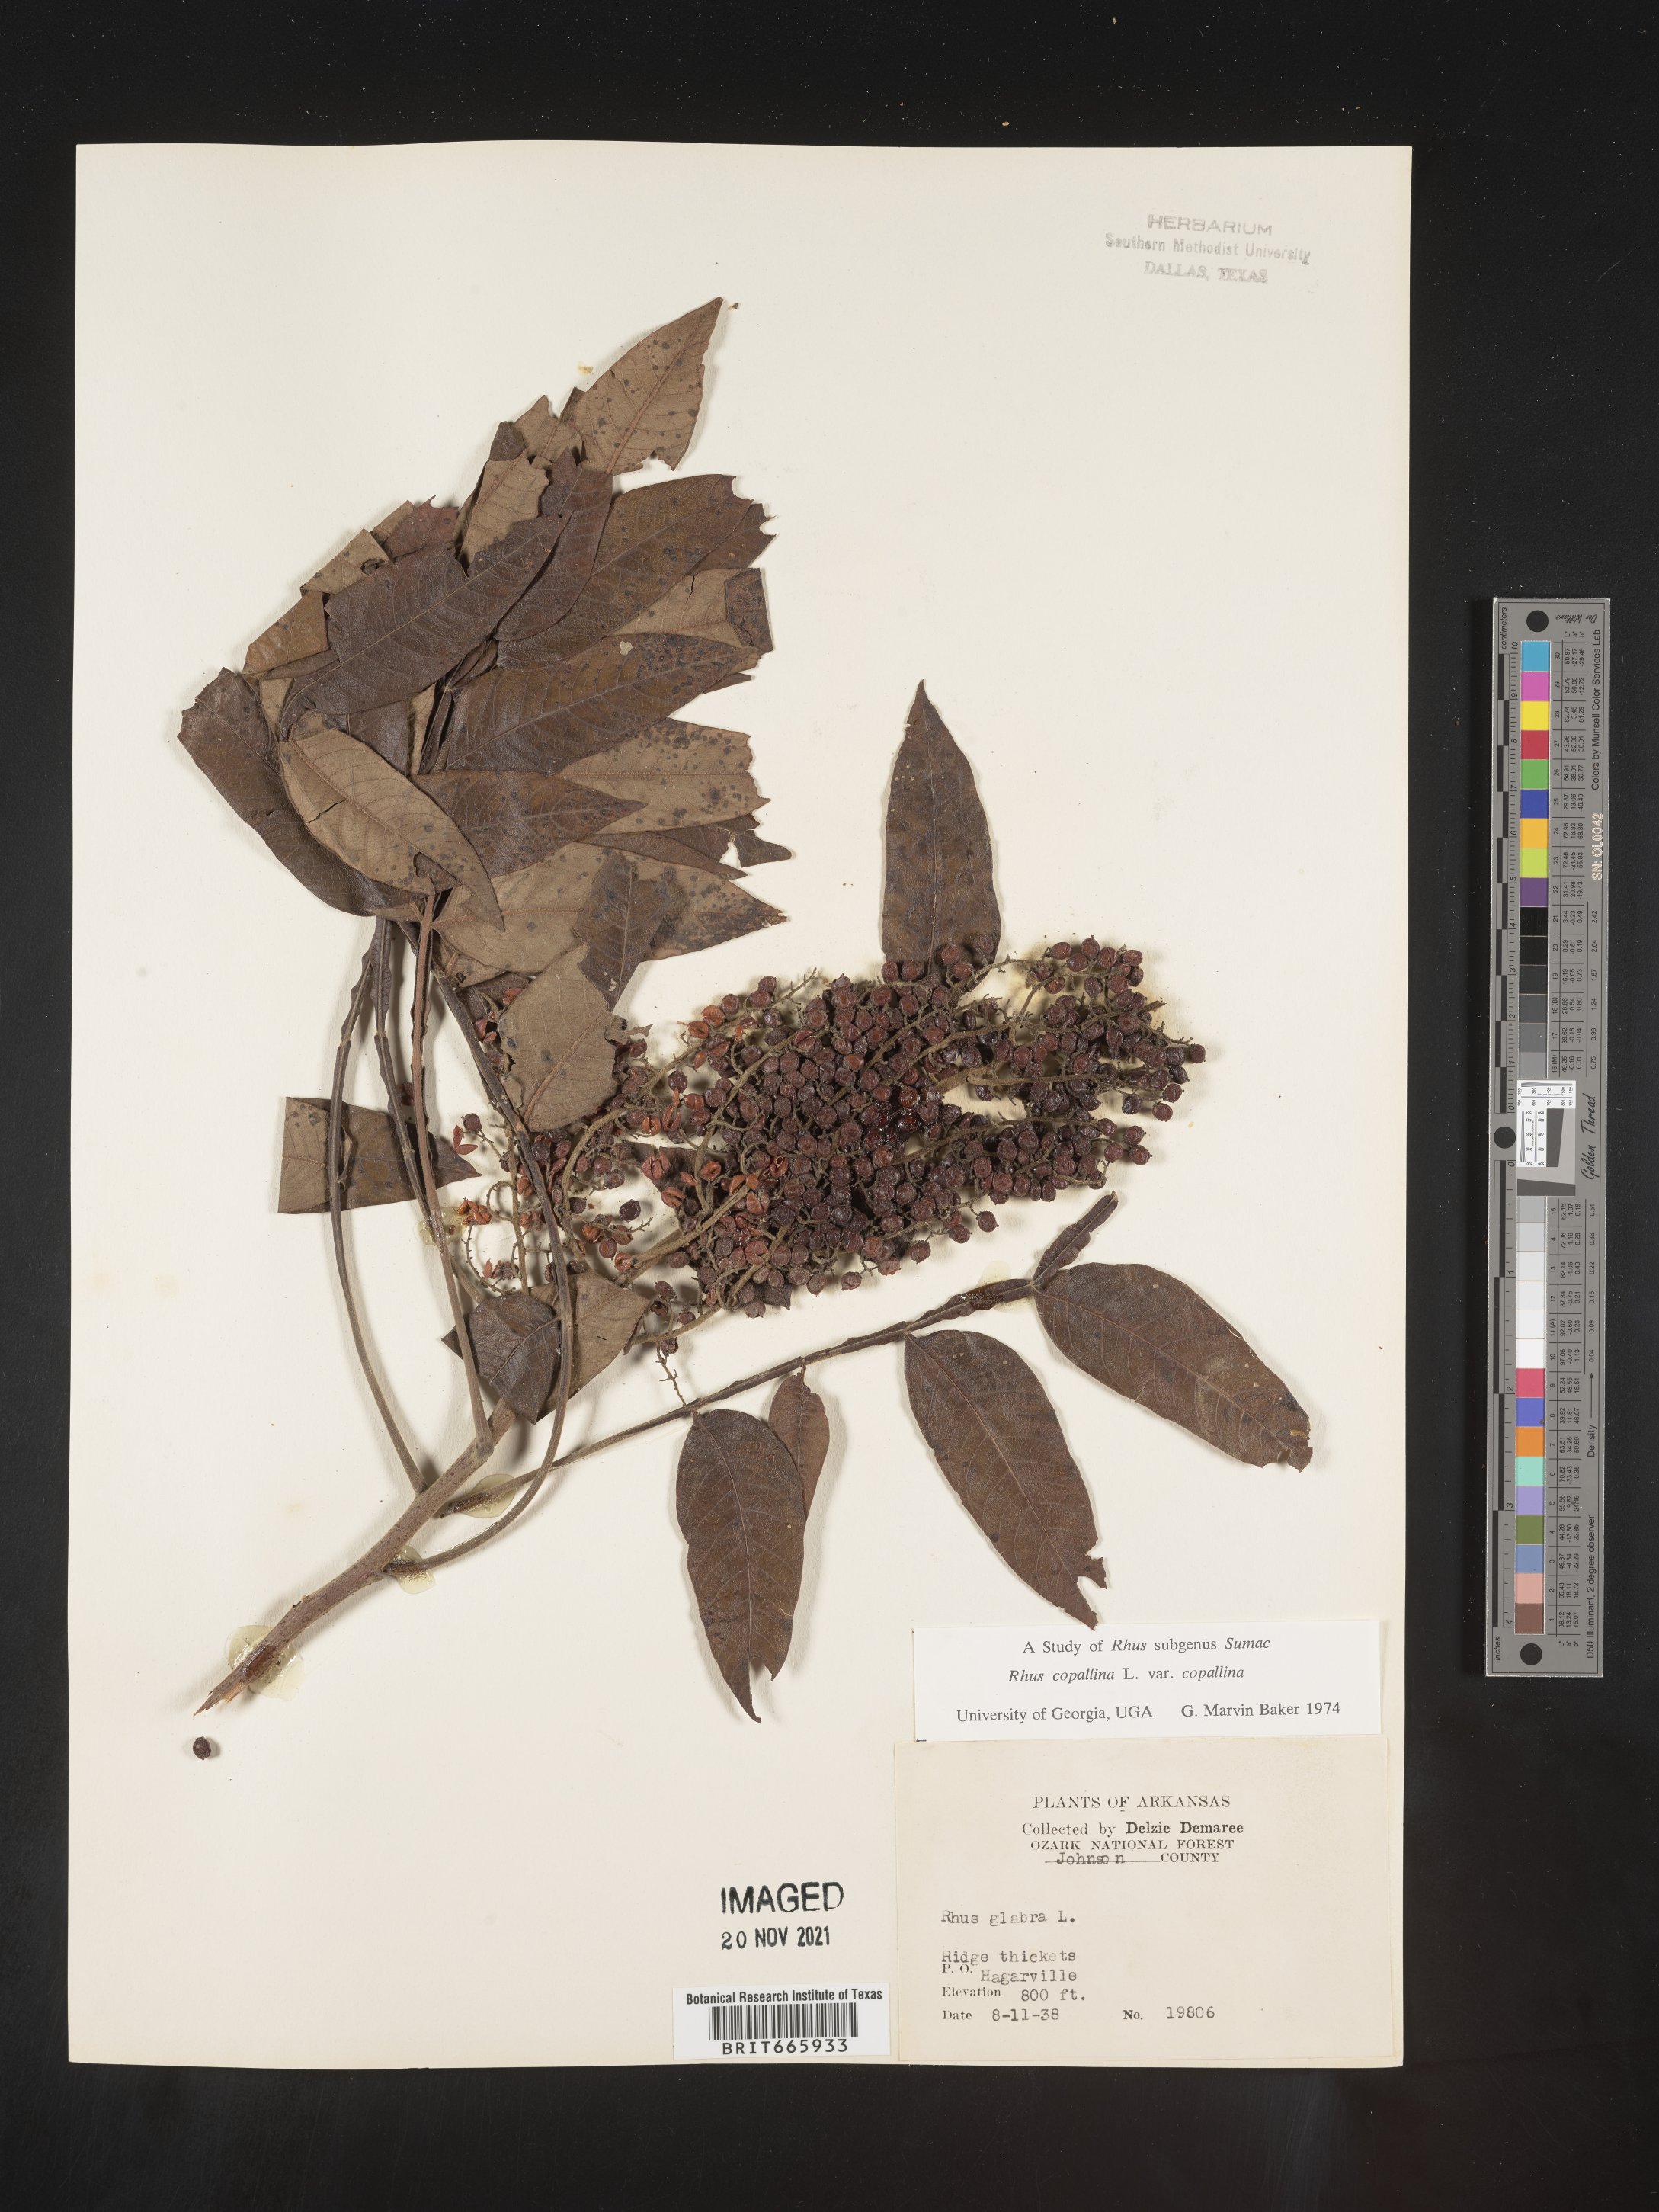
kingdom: Plantae
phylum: Tracheophyta
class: Magnoliopsida
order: Sapindales
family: Anacardiaceae
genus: Rhus
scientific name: Rhus copallina
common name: Shining sumac
